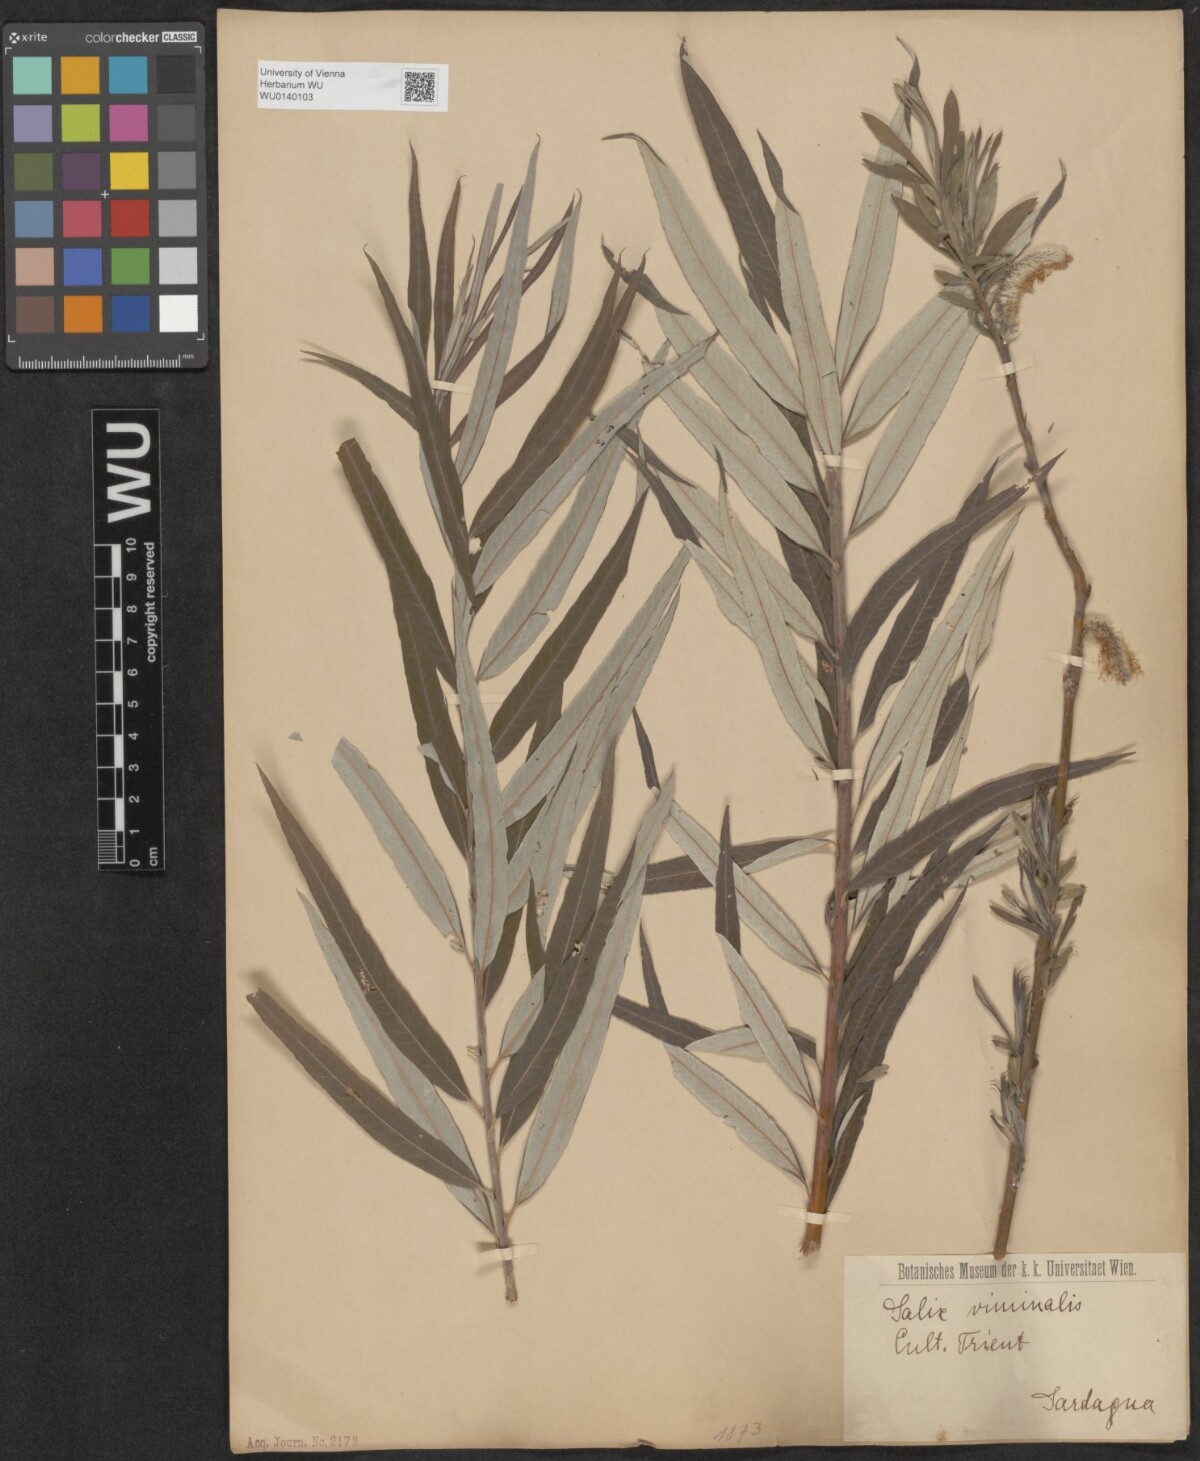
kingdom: Plantae
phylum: Tracheophyta
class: Magnoliopsida
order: Malpighiales
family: Salicaceae
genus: Salix
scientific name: Salix viminalis
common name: Osier
